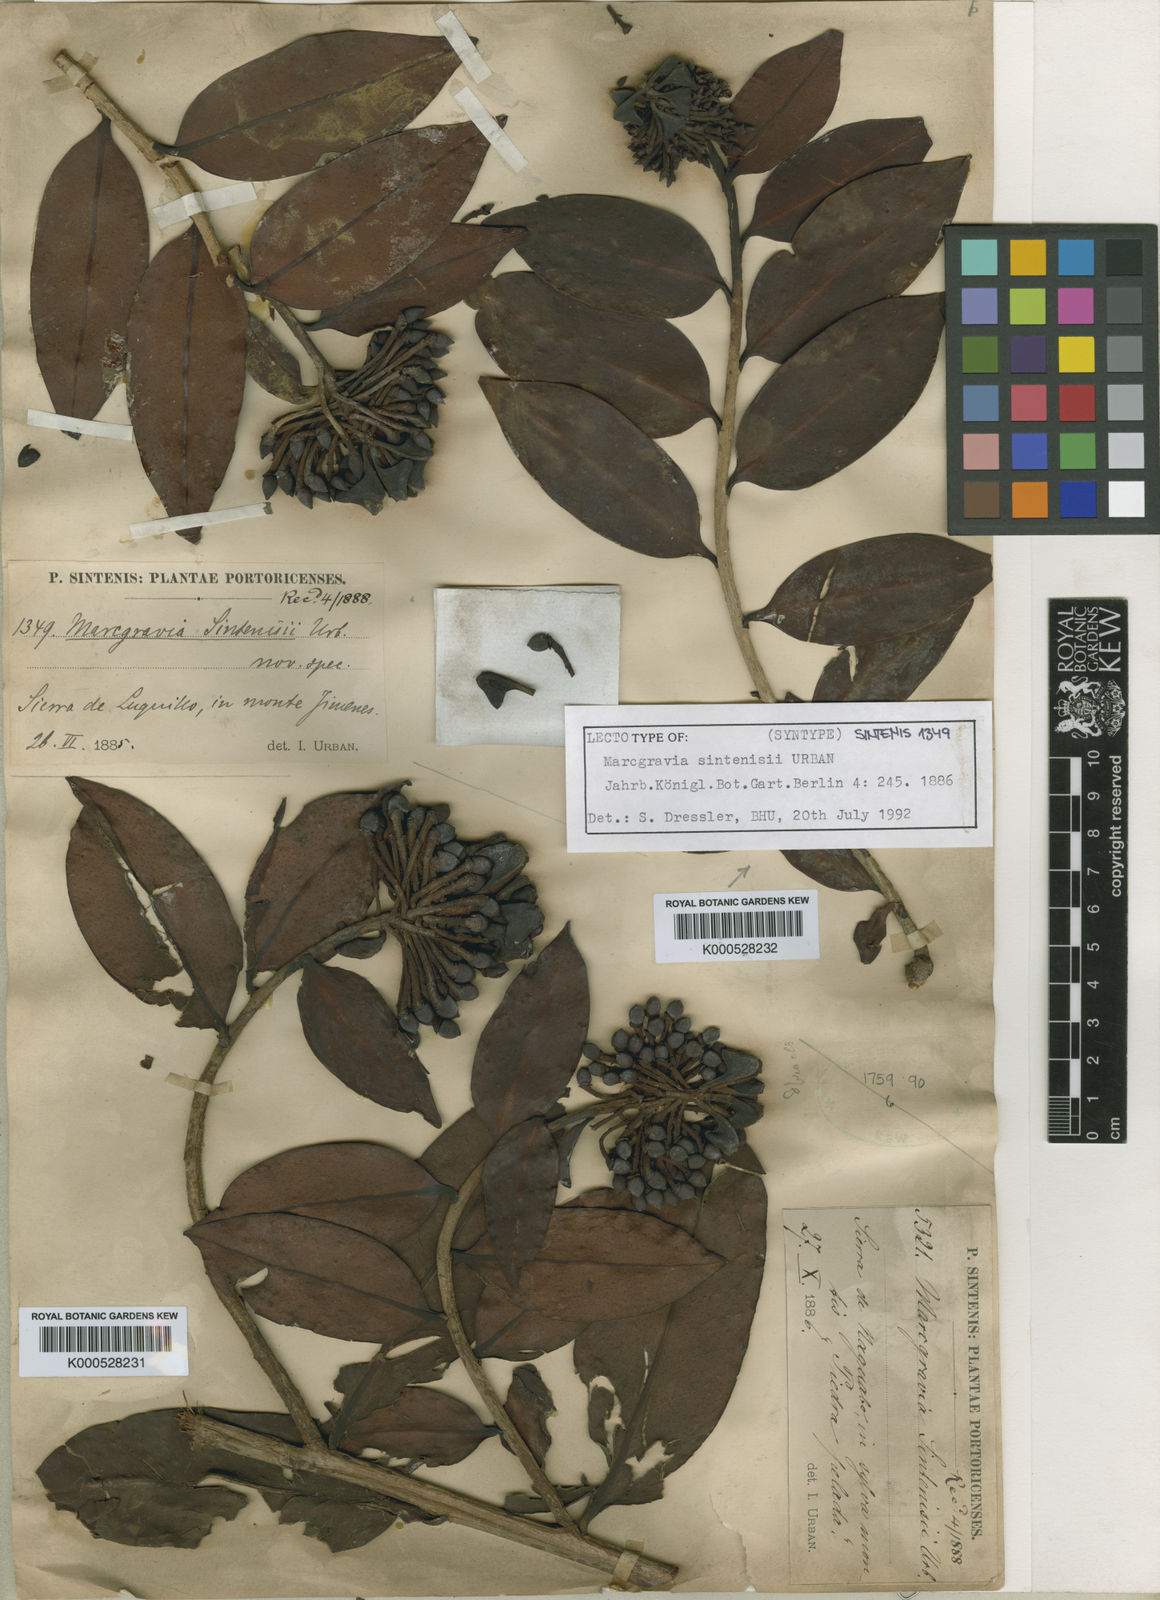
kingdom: Plantae
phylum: Tracheophyta
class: Magnoliopsida
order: Ericales
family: Marcgraviaceae
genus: Marcgravia
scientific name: Marcgravia sintenisii
